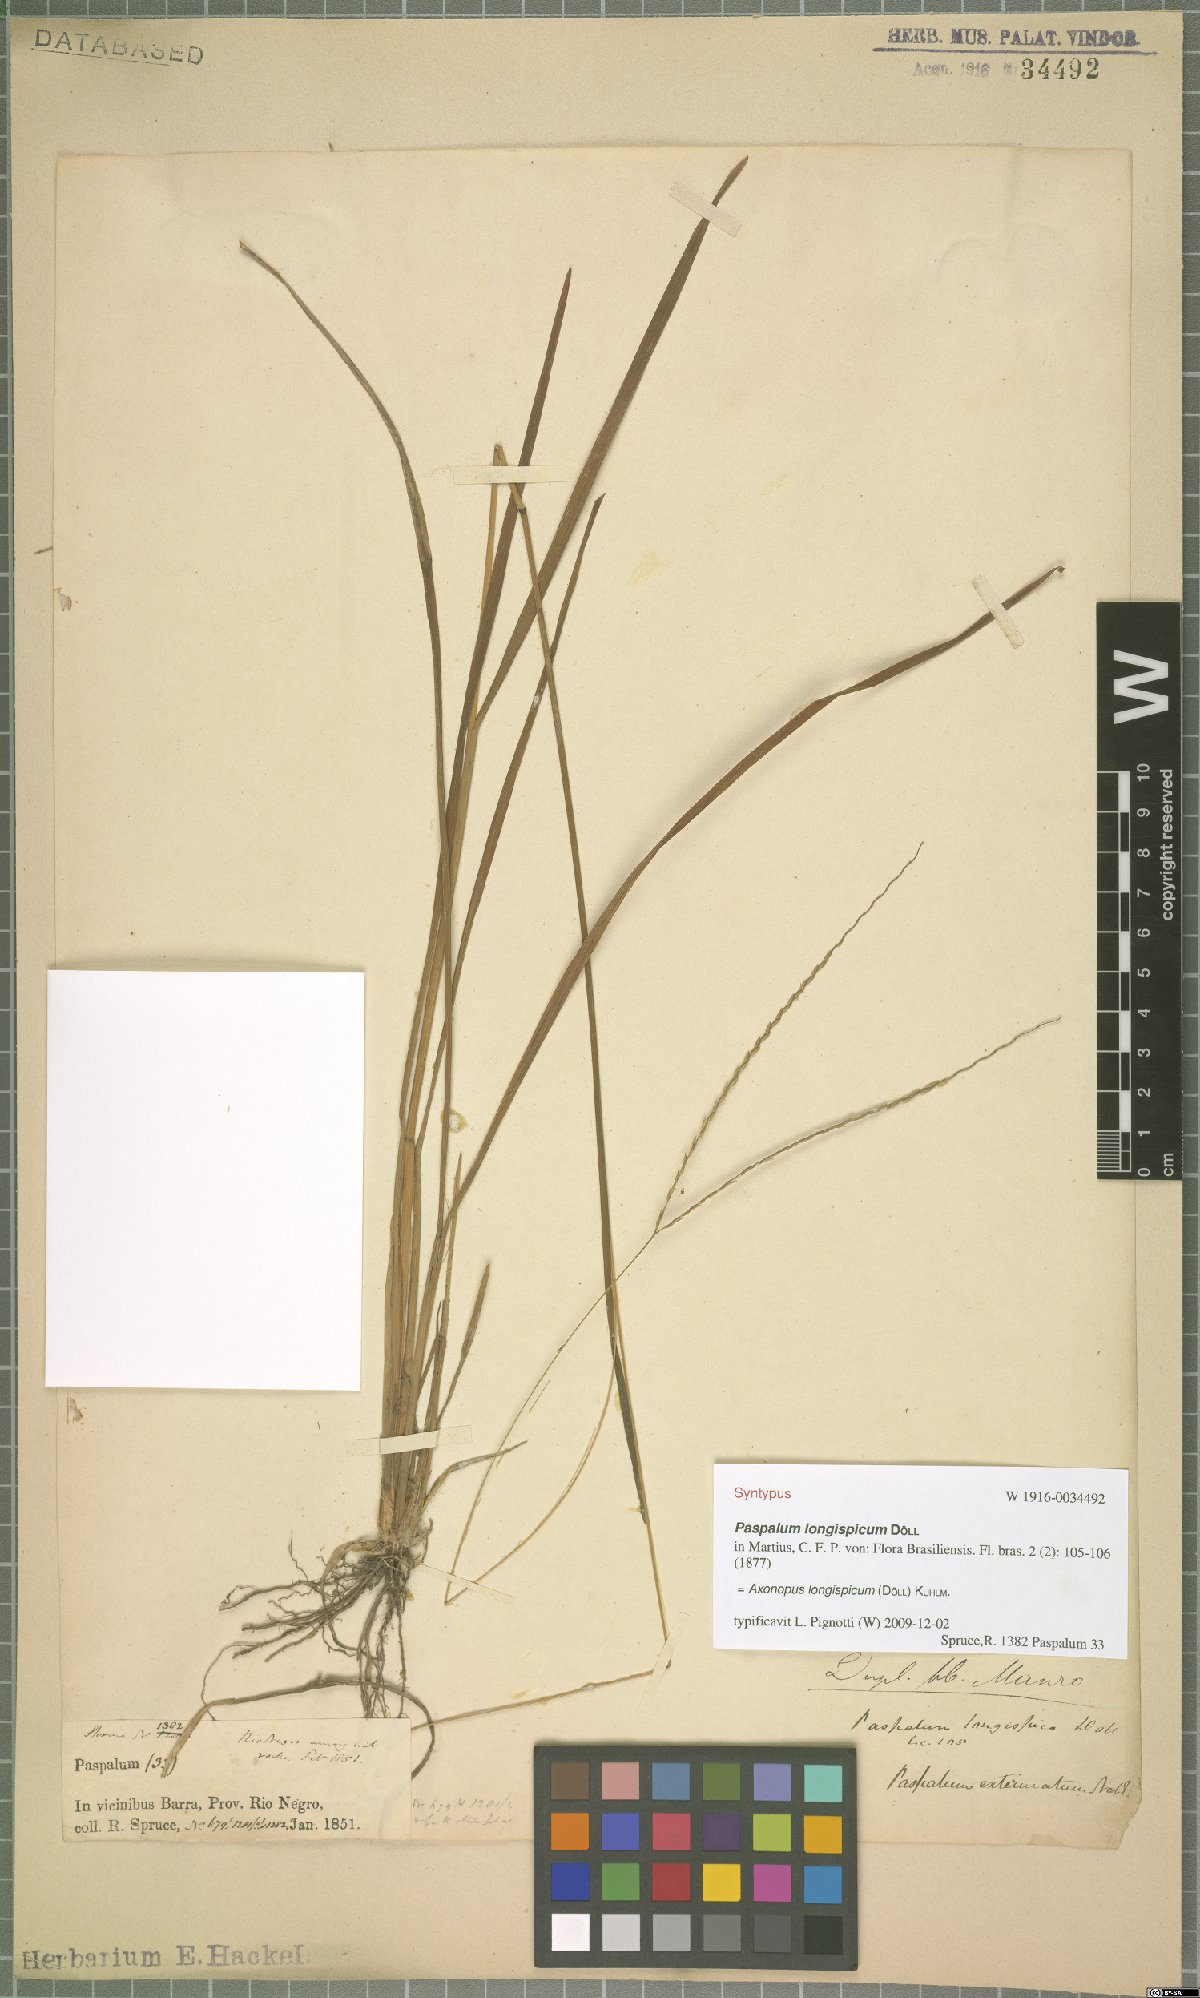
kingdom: Plantae
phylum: Tracheophyta
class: Liliopsida
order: Poales
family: Poaceae
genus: Axonopus
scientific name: Axonopus longispicus
